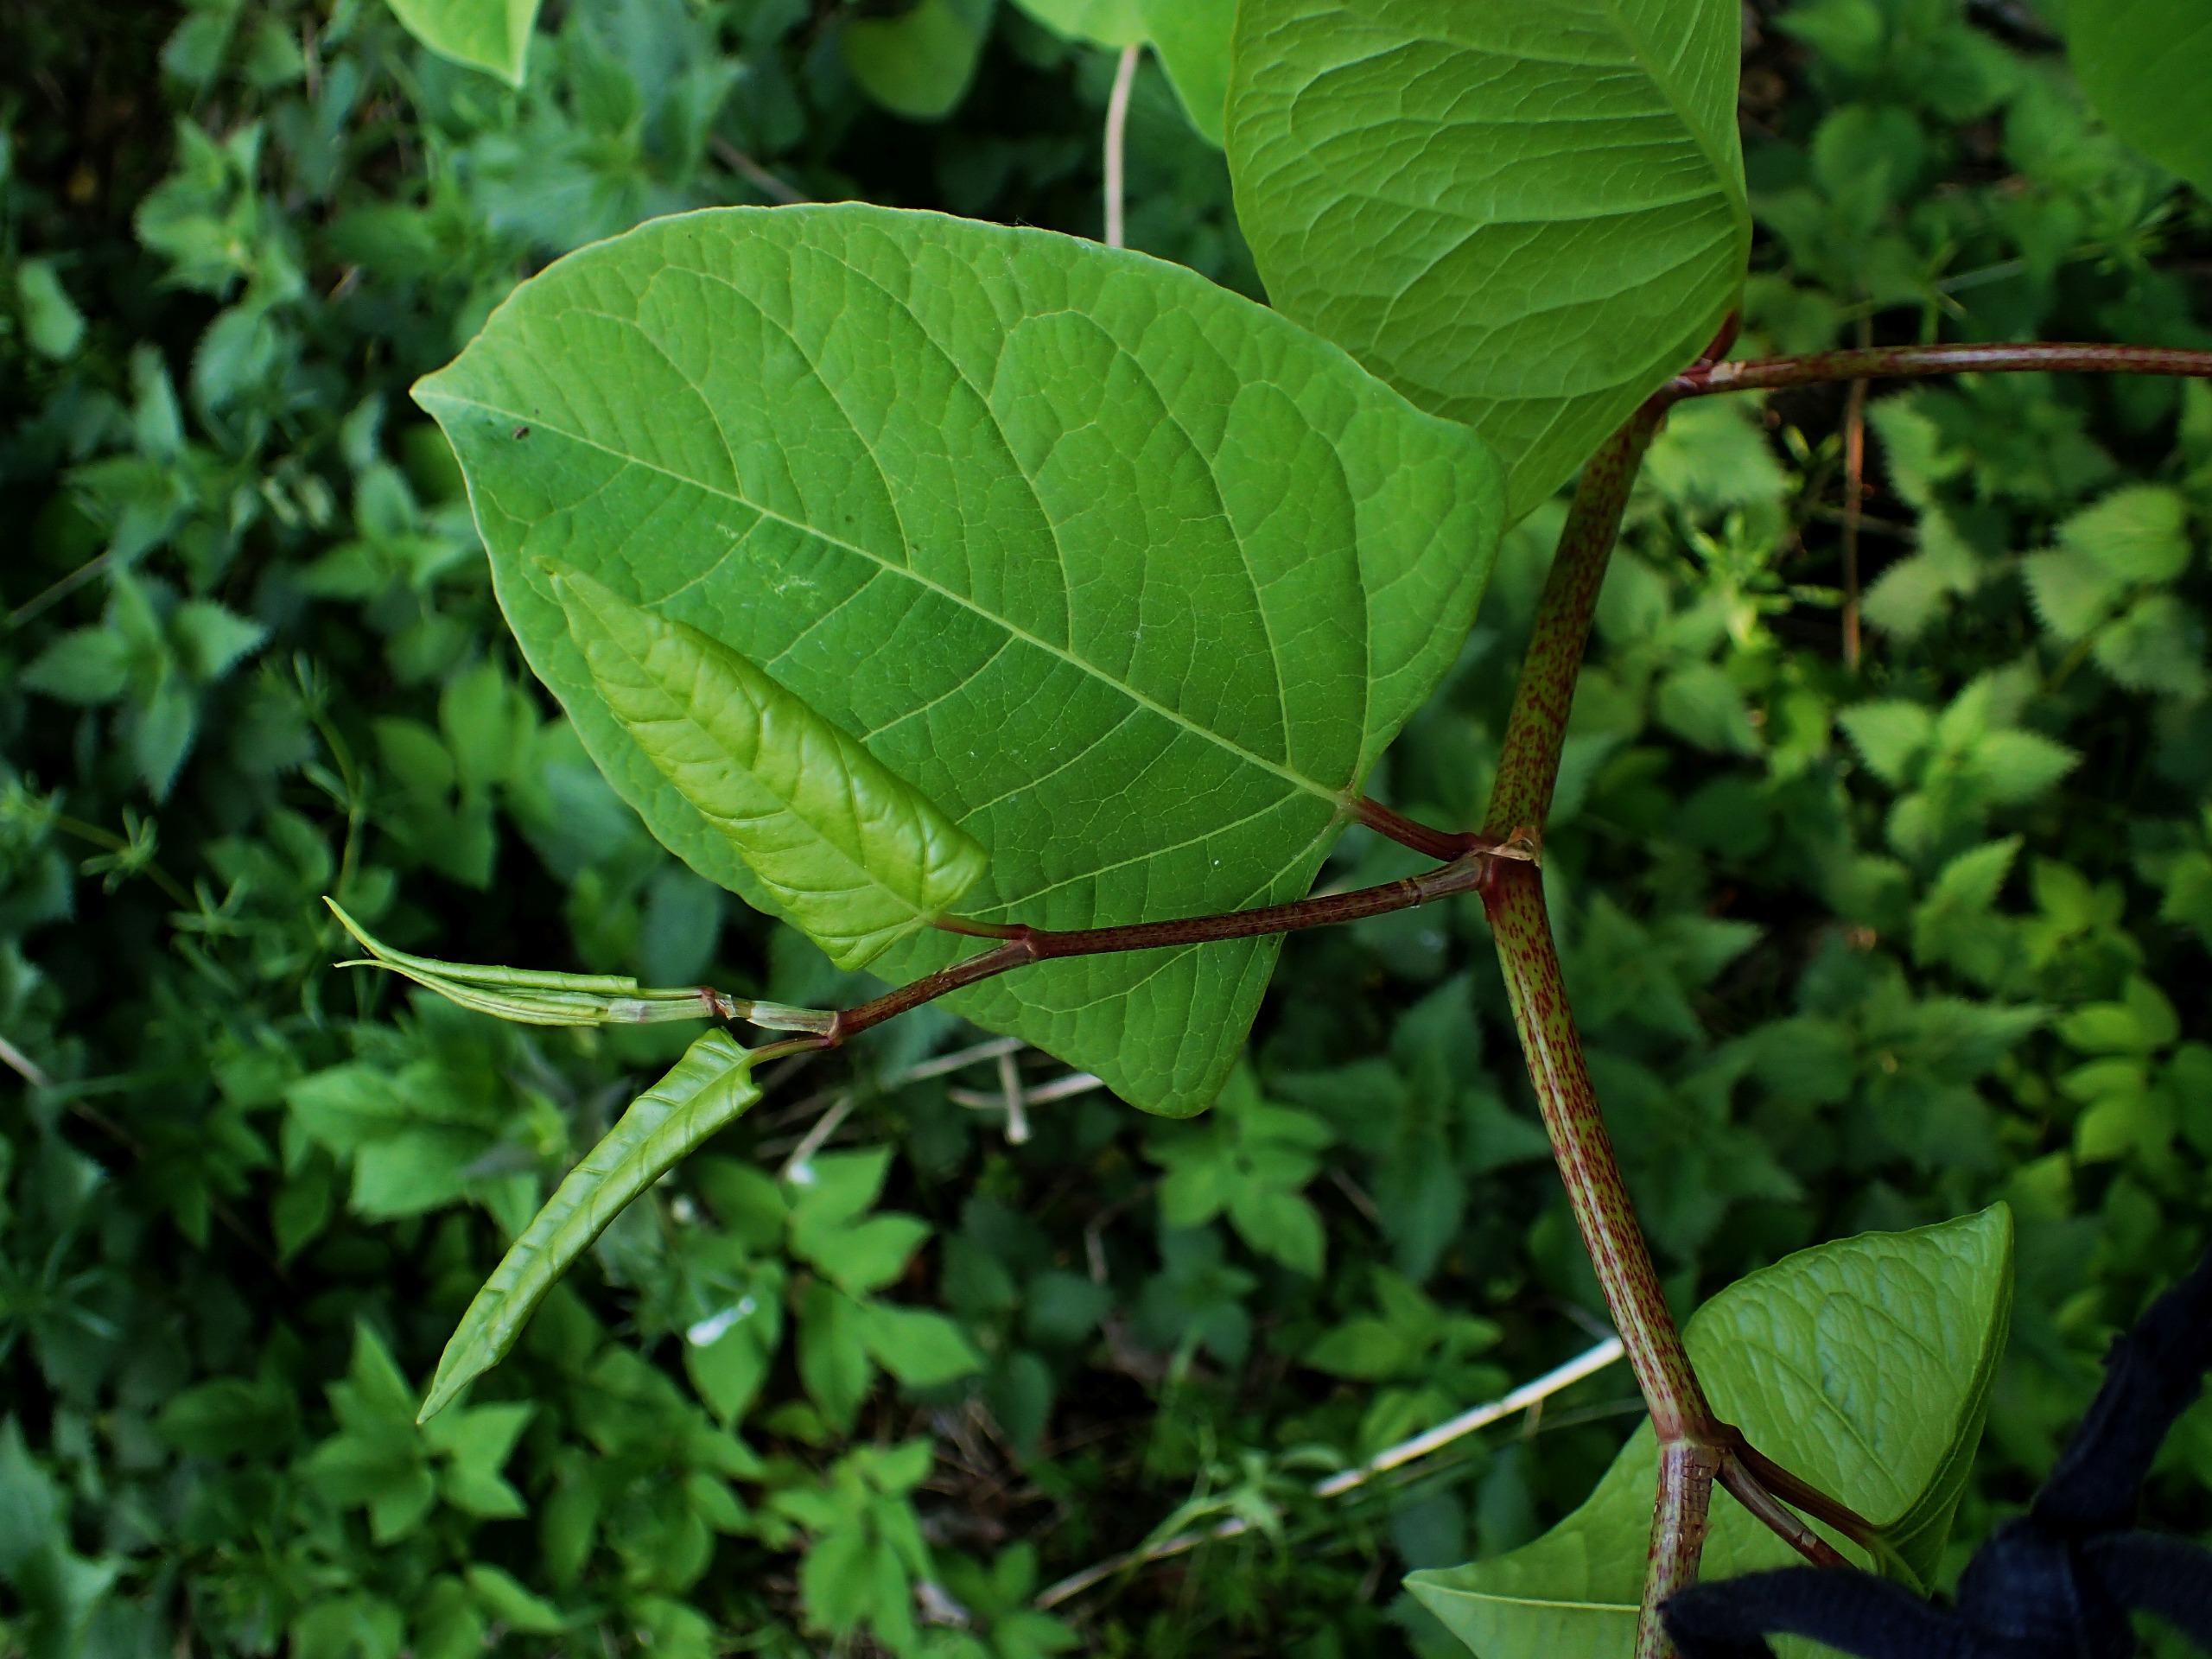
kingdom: Plantae
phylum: Tracheophyta
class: Magnoliopsida
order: Caryophyllales
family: Polygonaceae
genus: Reynoutria
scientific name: Reynoutria japonica
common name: Japan-pileurt
